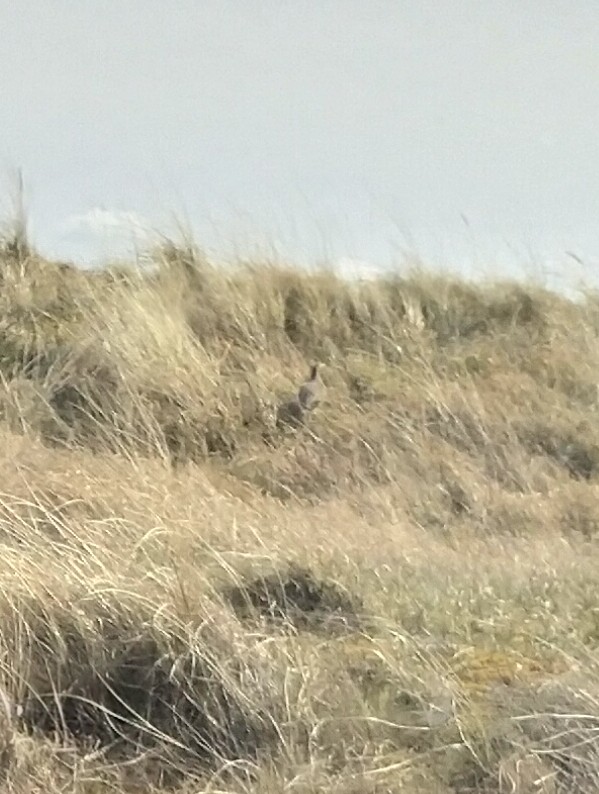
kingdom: Animalia
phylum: Chordata
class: Aves
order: Galliformes
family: Phasianidae
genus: Perdix
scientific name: Perdix perdix
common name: Agerhøne
